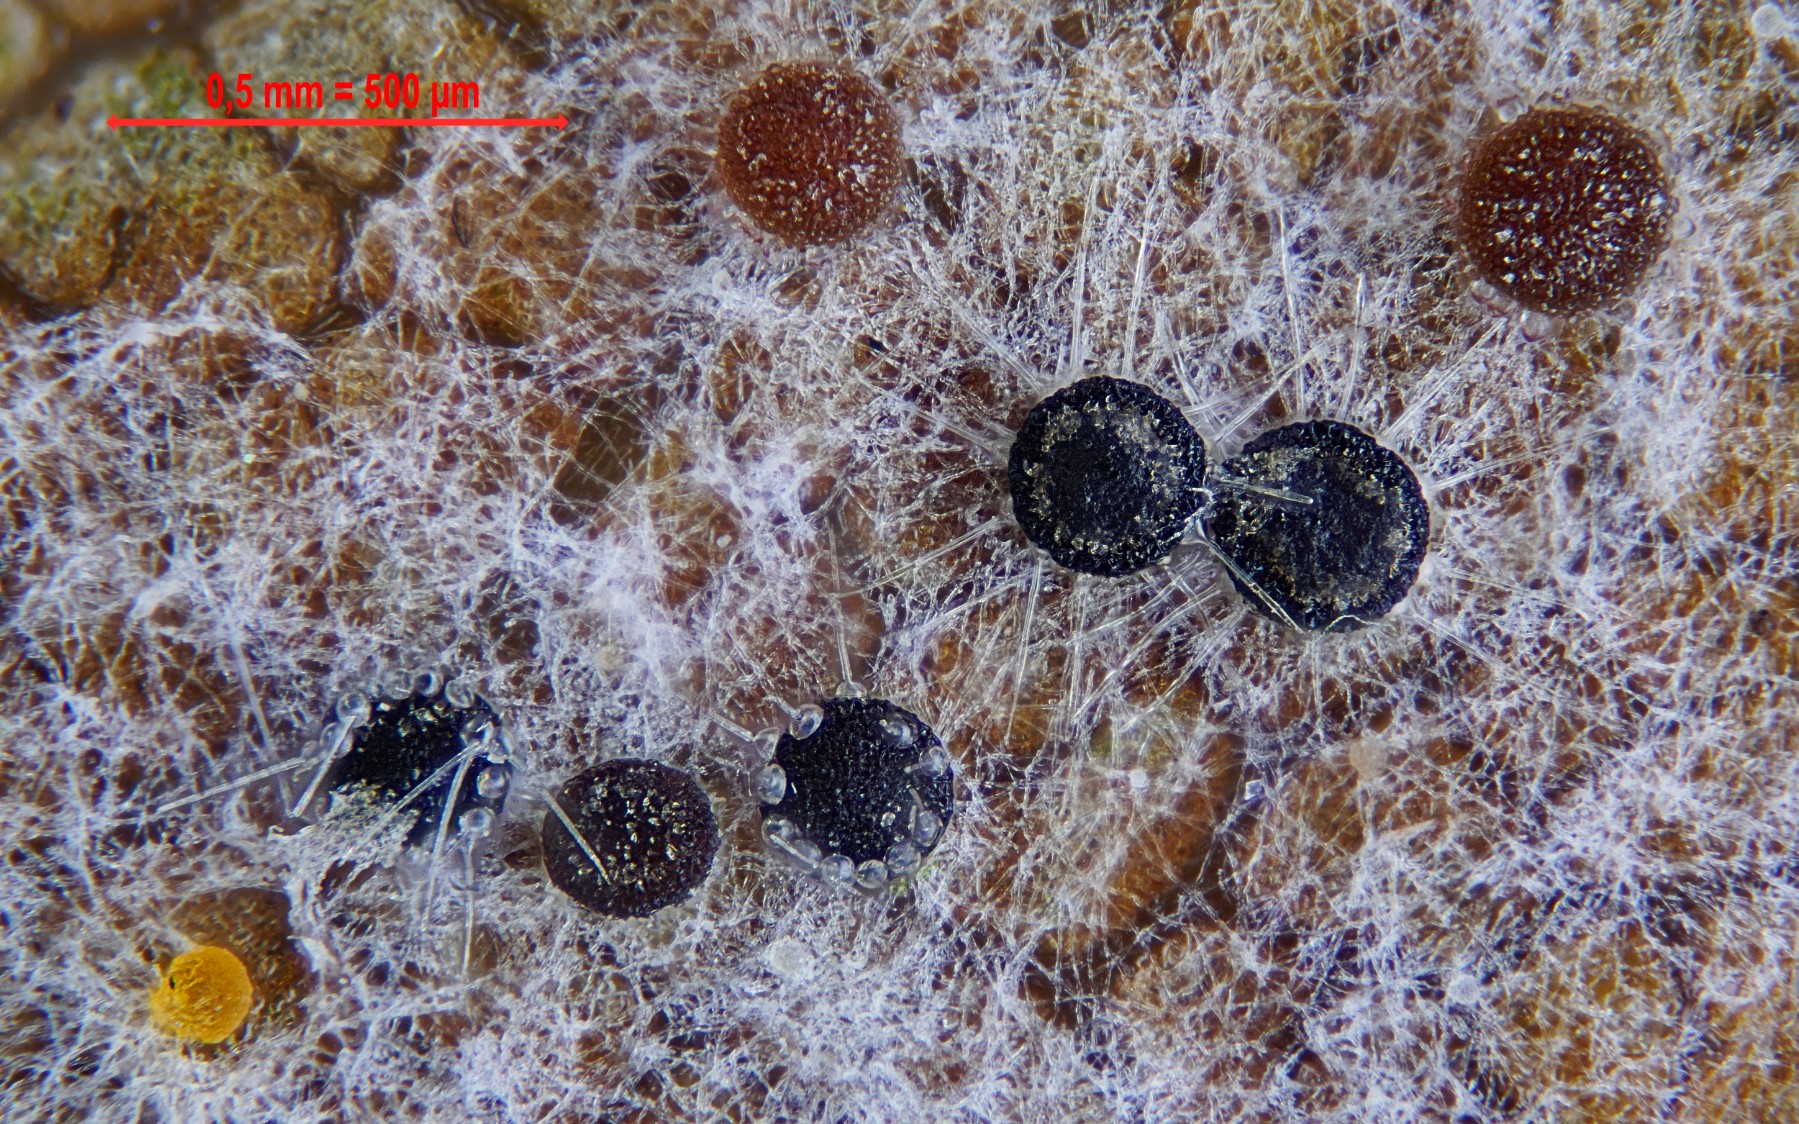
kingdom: Fungi
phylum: Ascomycota
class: Leotiomycetes
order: Helotiales
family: Erysiphaceae
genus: Phyllactinia
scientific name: Phyllactinia orbicularis
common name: bøge-meldug
